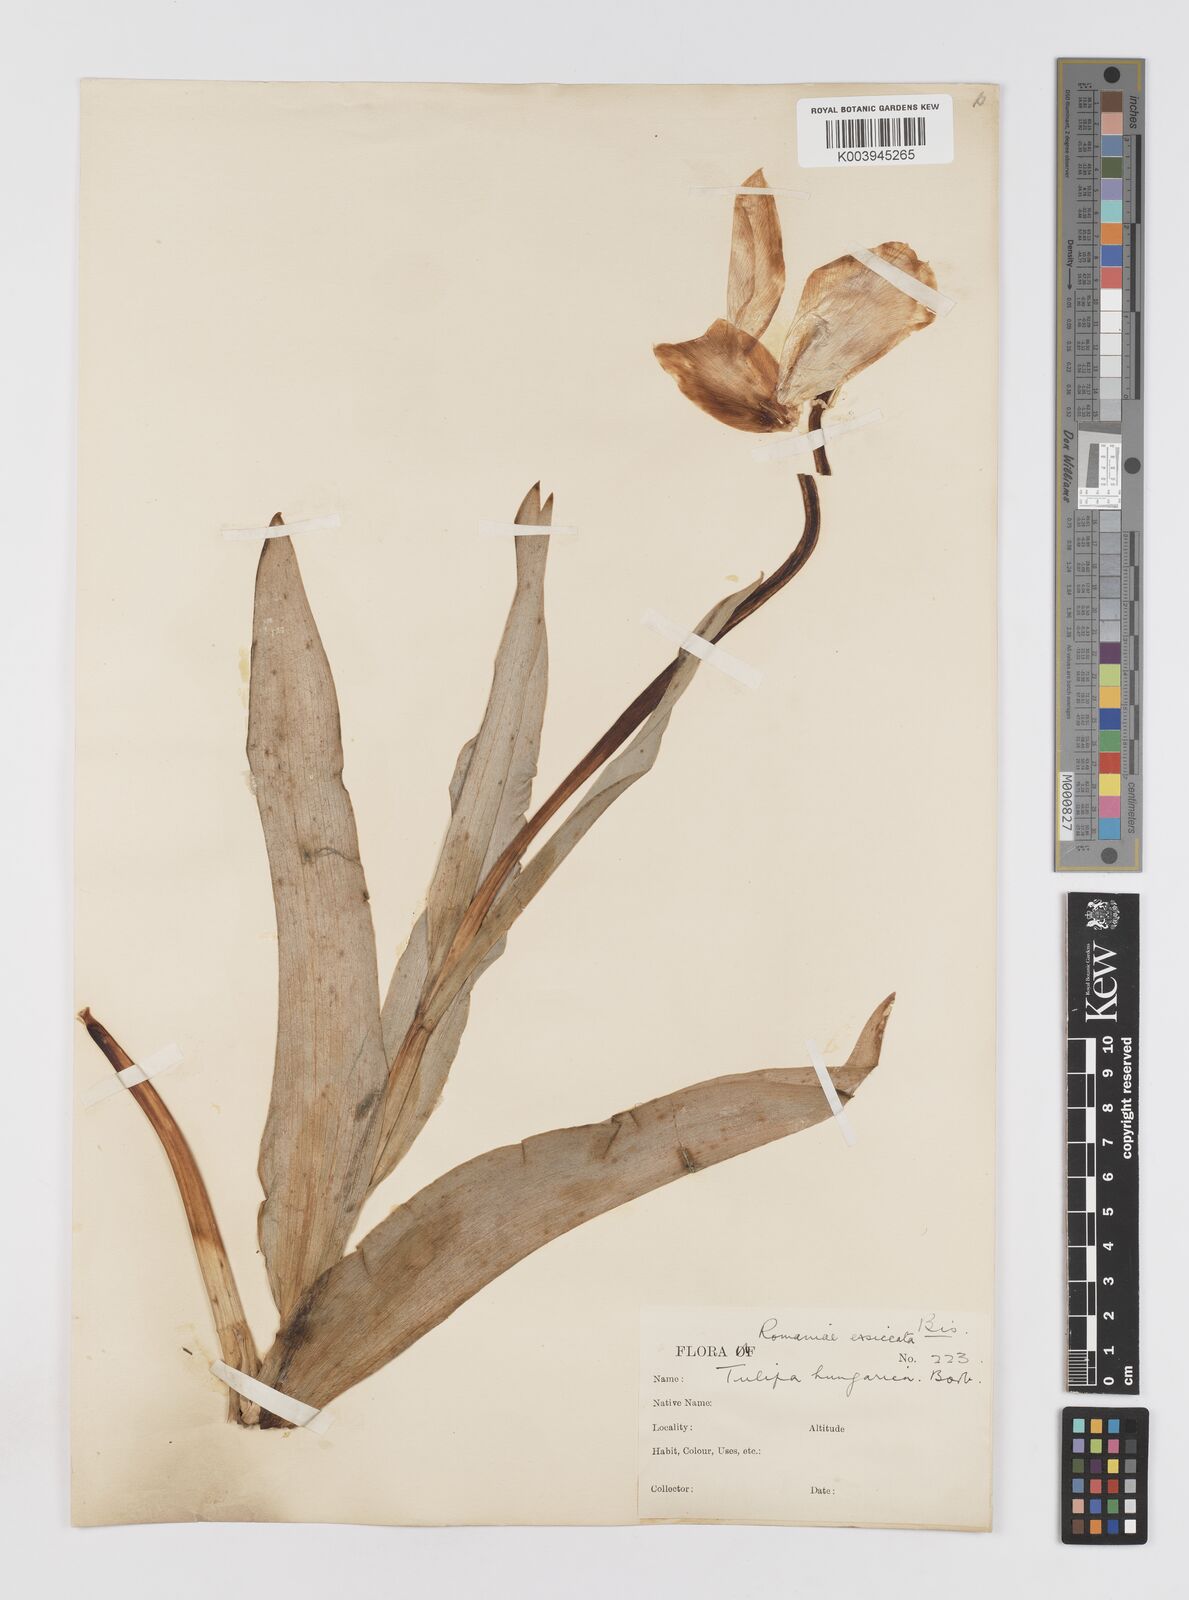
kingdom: Plantae
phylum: Tracheophyta
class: Liliopsida
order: Liliales
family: Liliaceae
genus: Tulipa
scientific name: Tulipa hungarica
